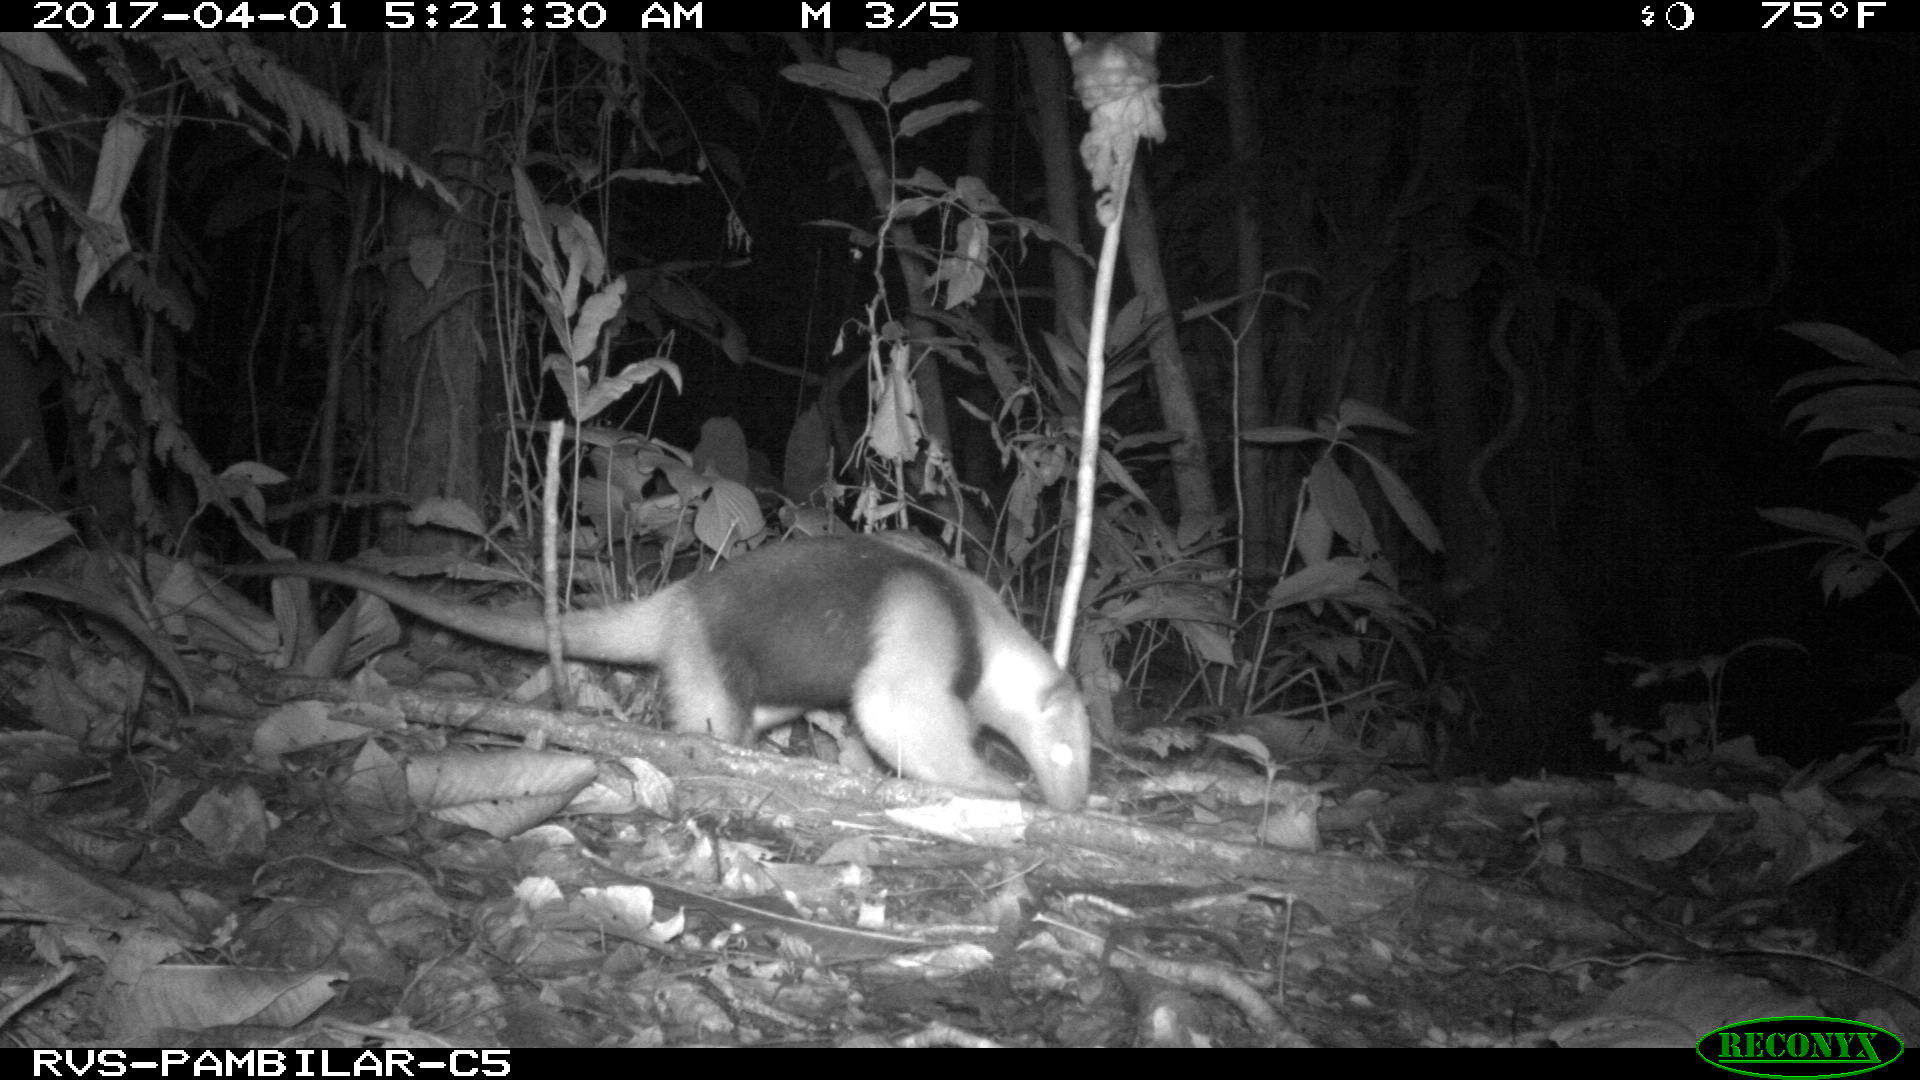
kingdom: Animalia
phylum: Chordata
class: Mammalia
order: Pilosa
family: Myrmecophagidae
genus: Tamandua
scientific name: Tamandua mexicana
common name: Northern tamandua
